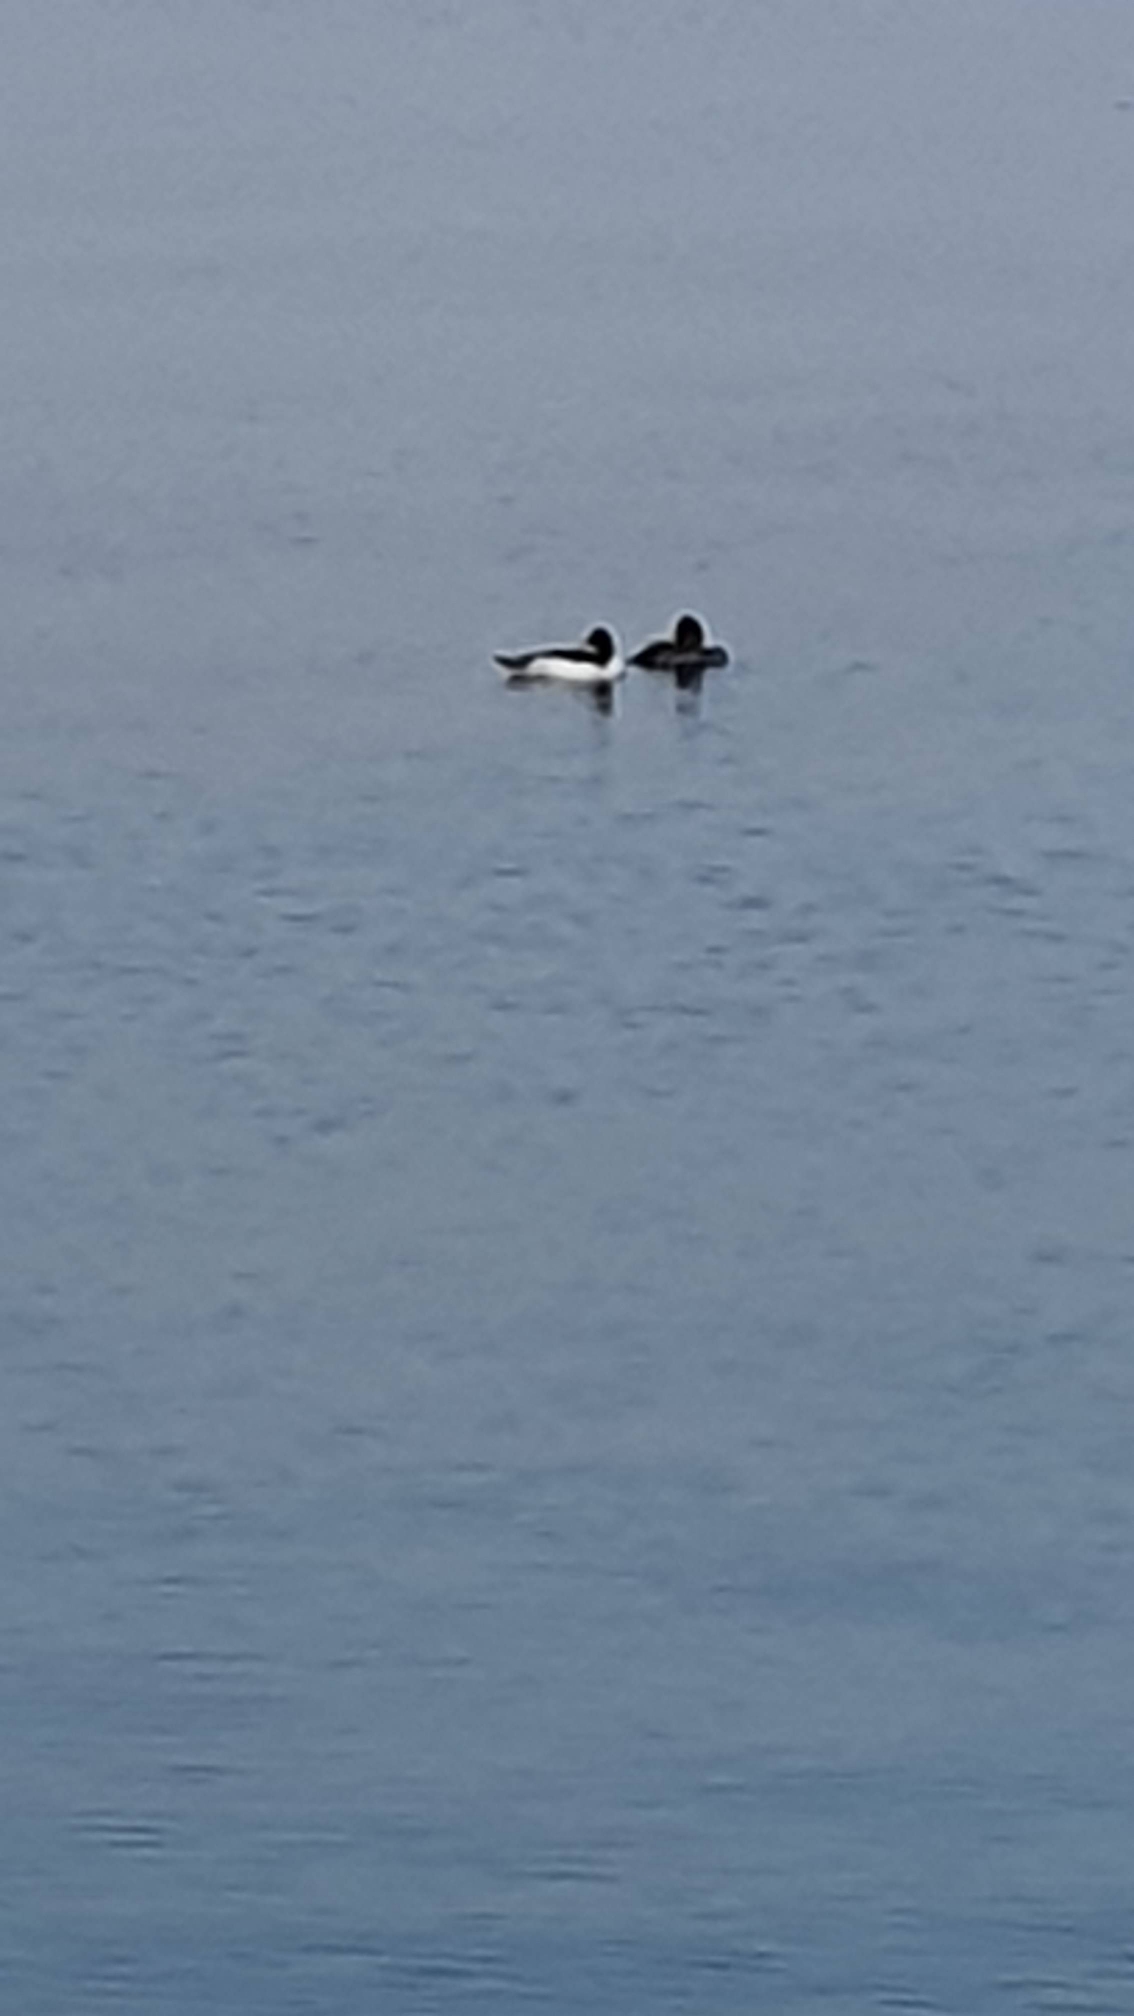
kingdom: Animalia
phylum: Chordata
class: Aves
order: Anseriformes
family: Anatidae
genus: Bucephala
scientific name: Bucephala clangula
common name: Hvinand
